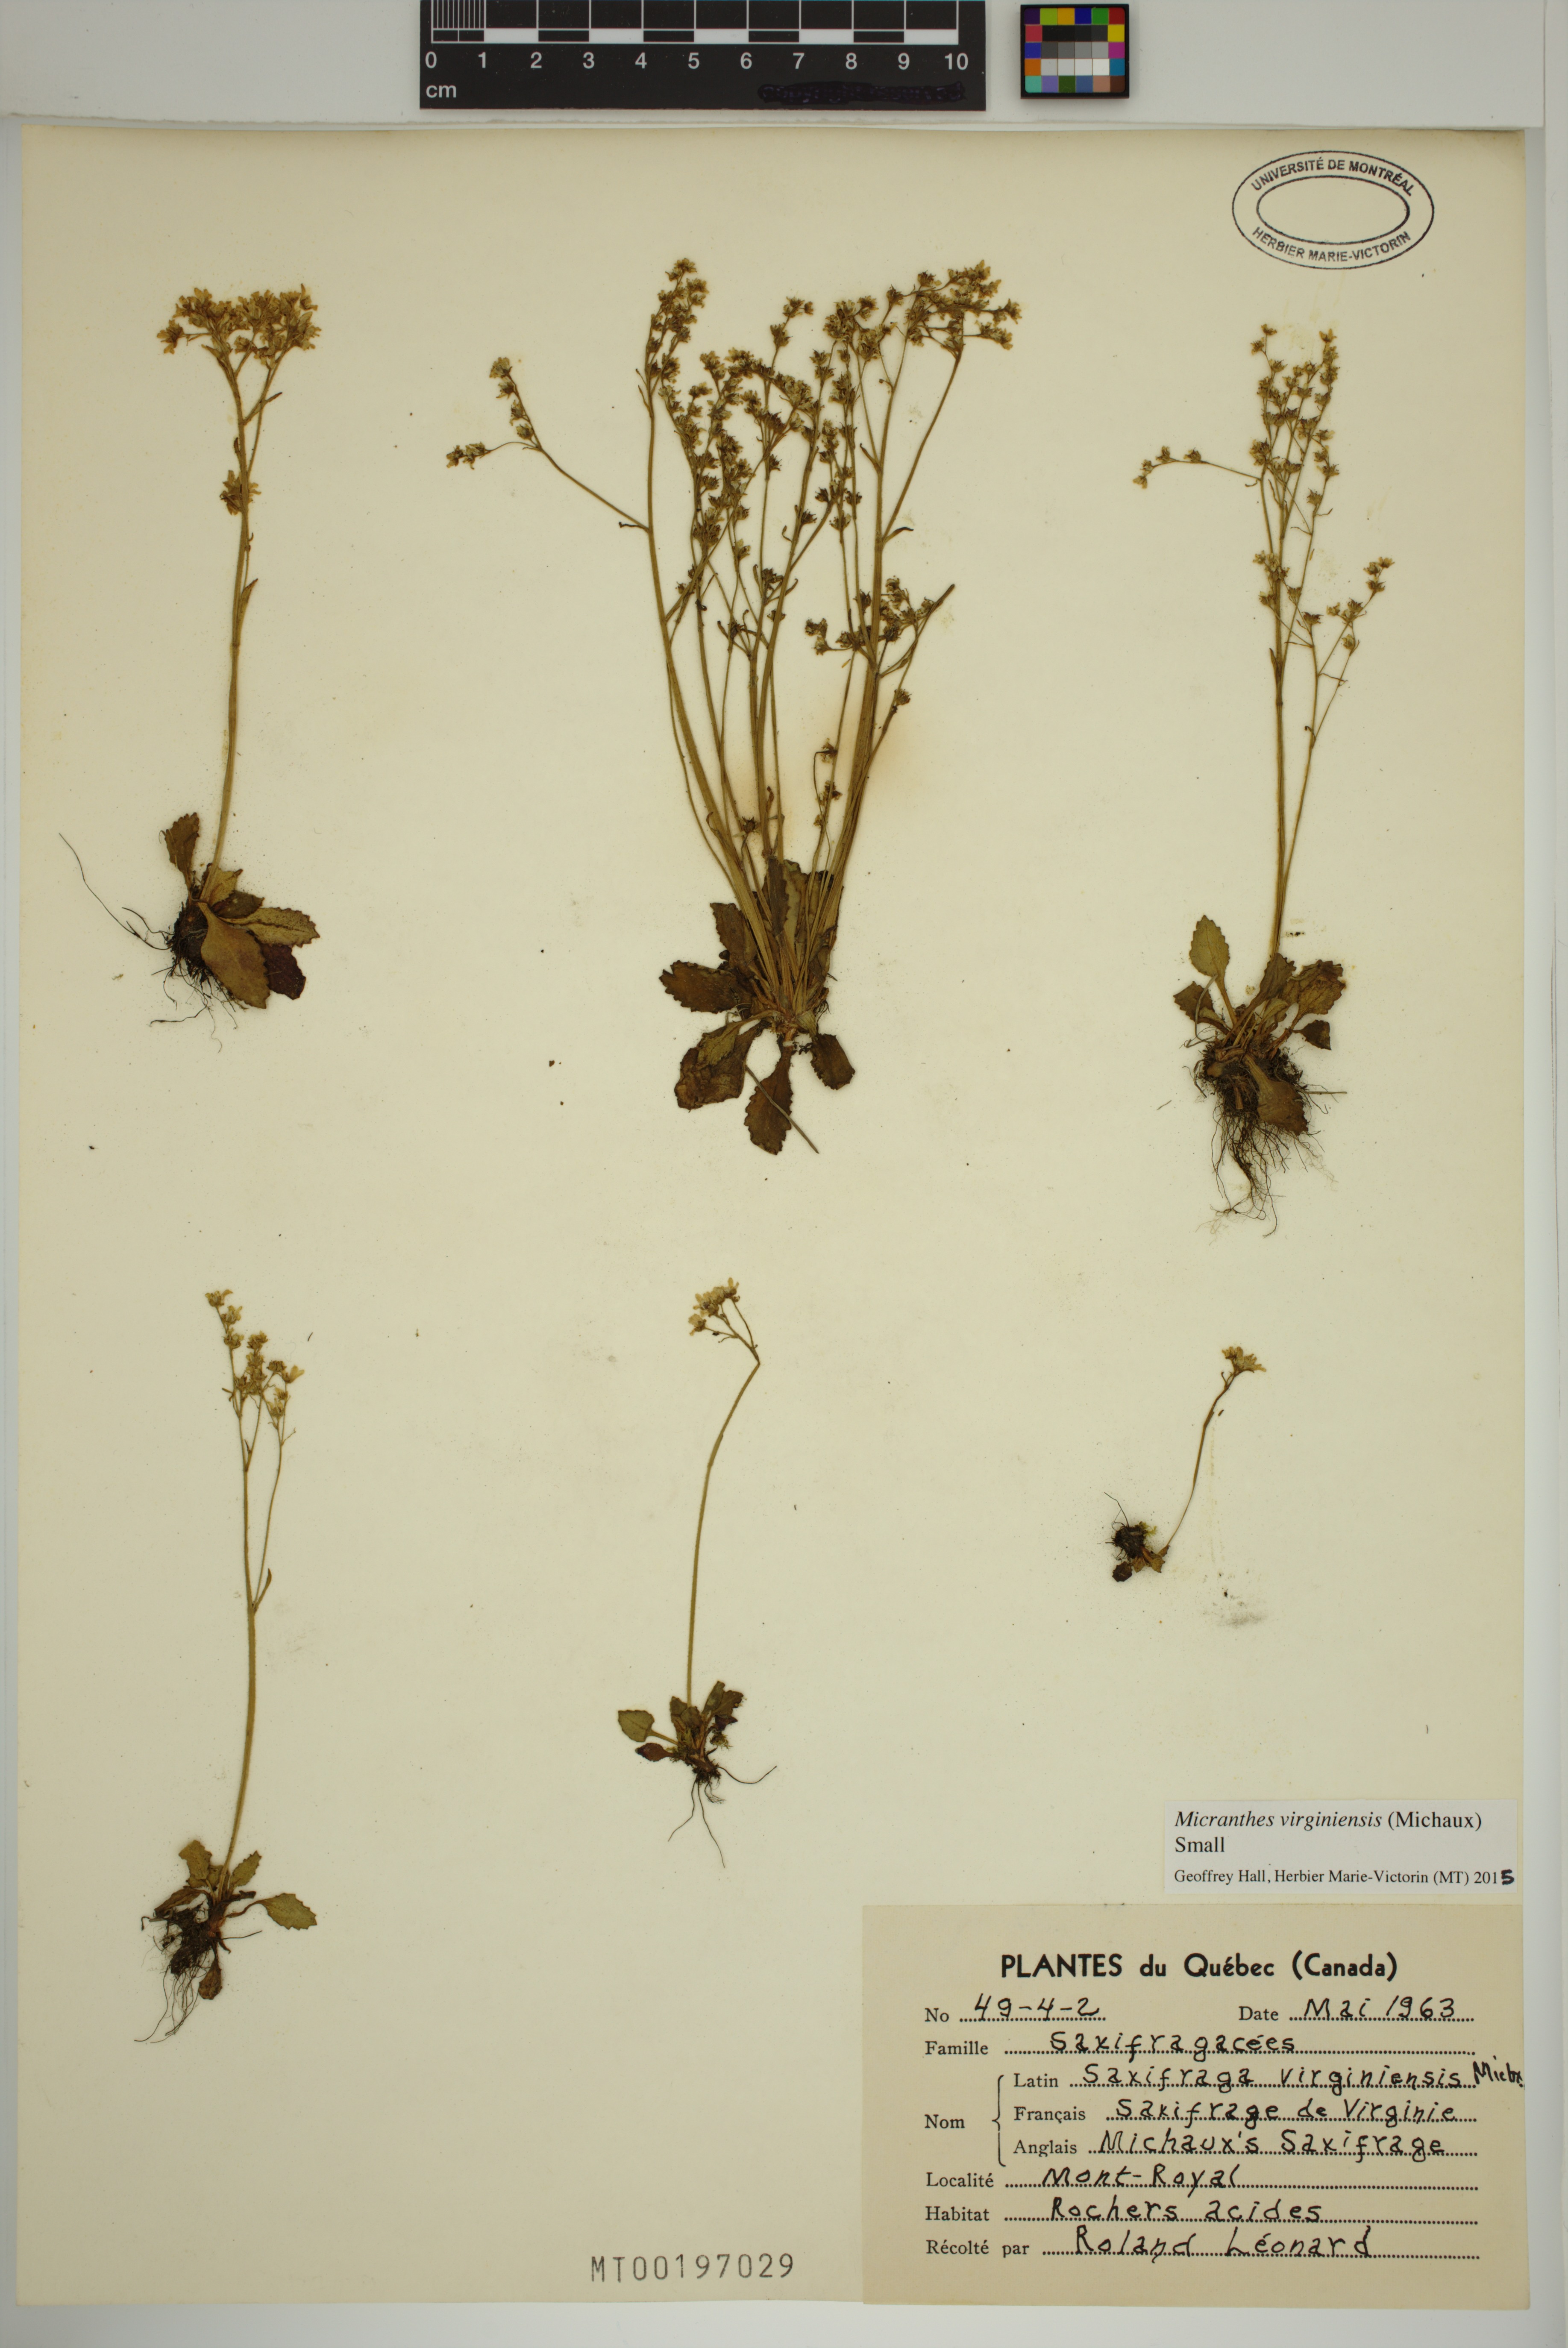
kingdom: Plantae
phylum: Tracheophyta
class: Magnoliopsida
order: Saxifragales
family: Saxifragaceae
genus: Micranthes
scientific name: Micranthes virginiensis
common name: Early saxifrage
